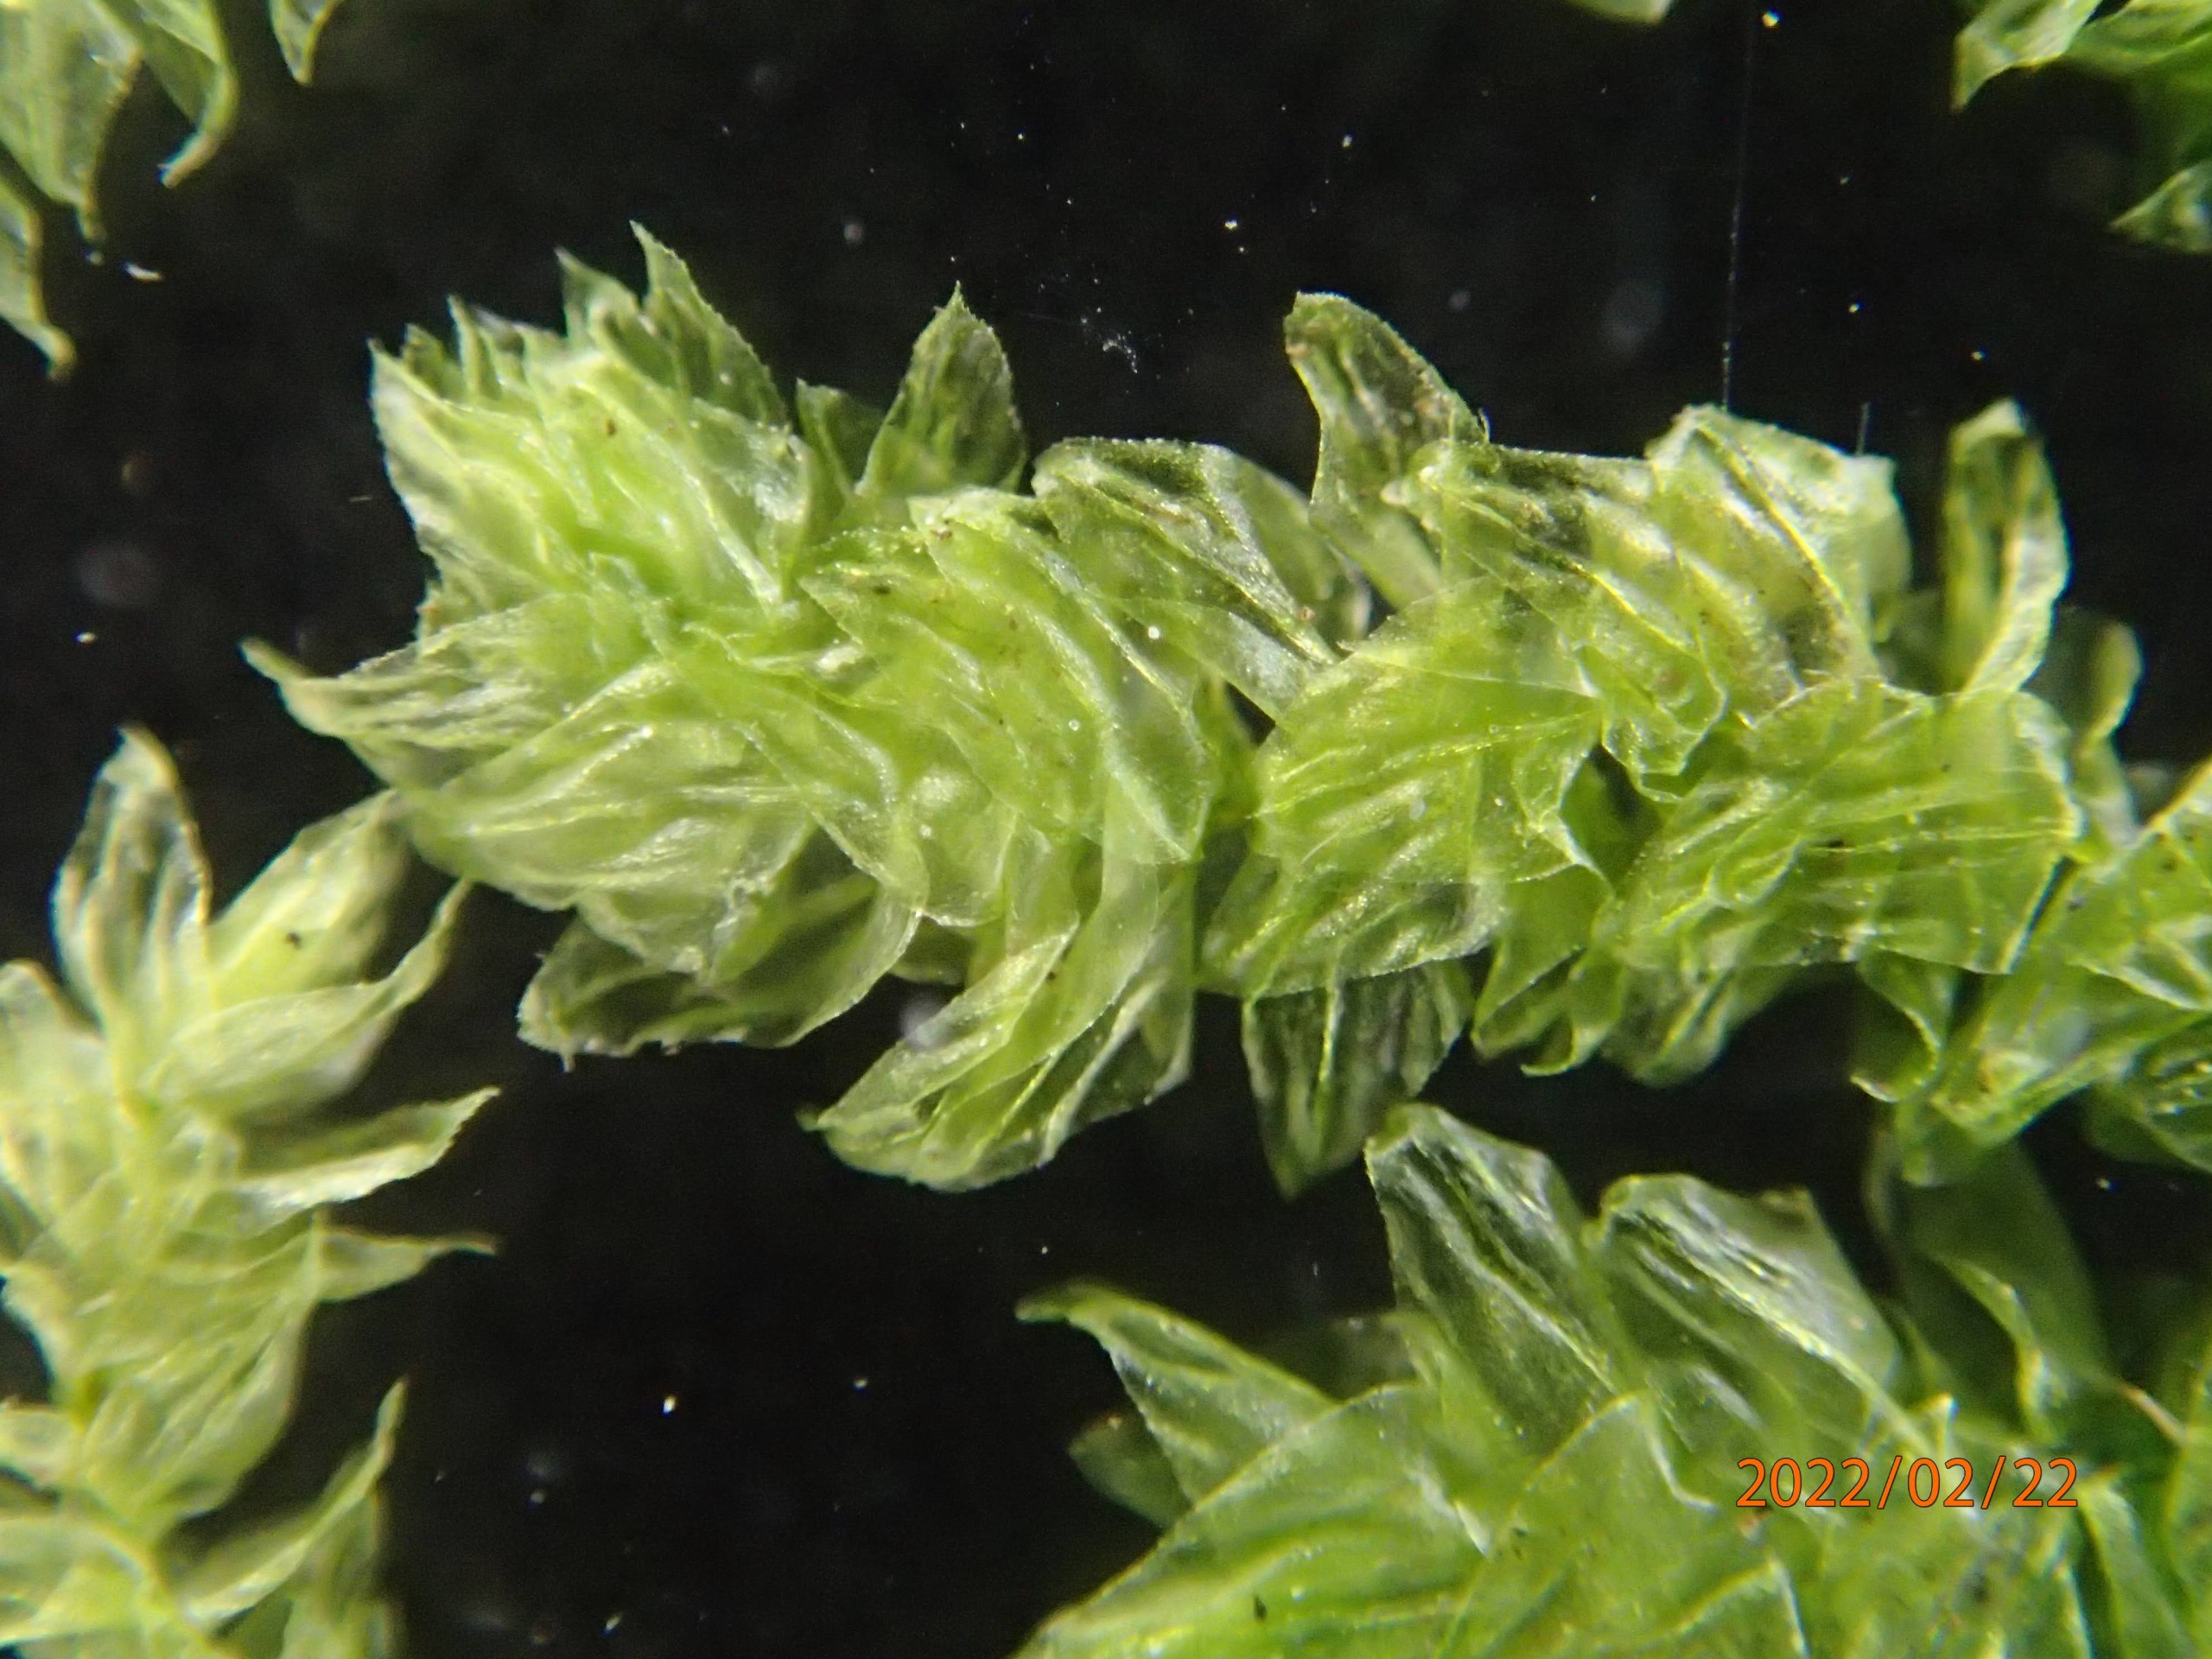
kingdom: Plantae
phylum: Bryophyta
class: Bryopsida
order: Hypnales
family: Brachytheciaceae
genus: Eurhynchium
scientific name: Eurhynchium angustirete
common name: Stor næbmos
